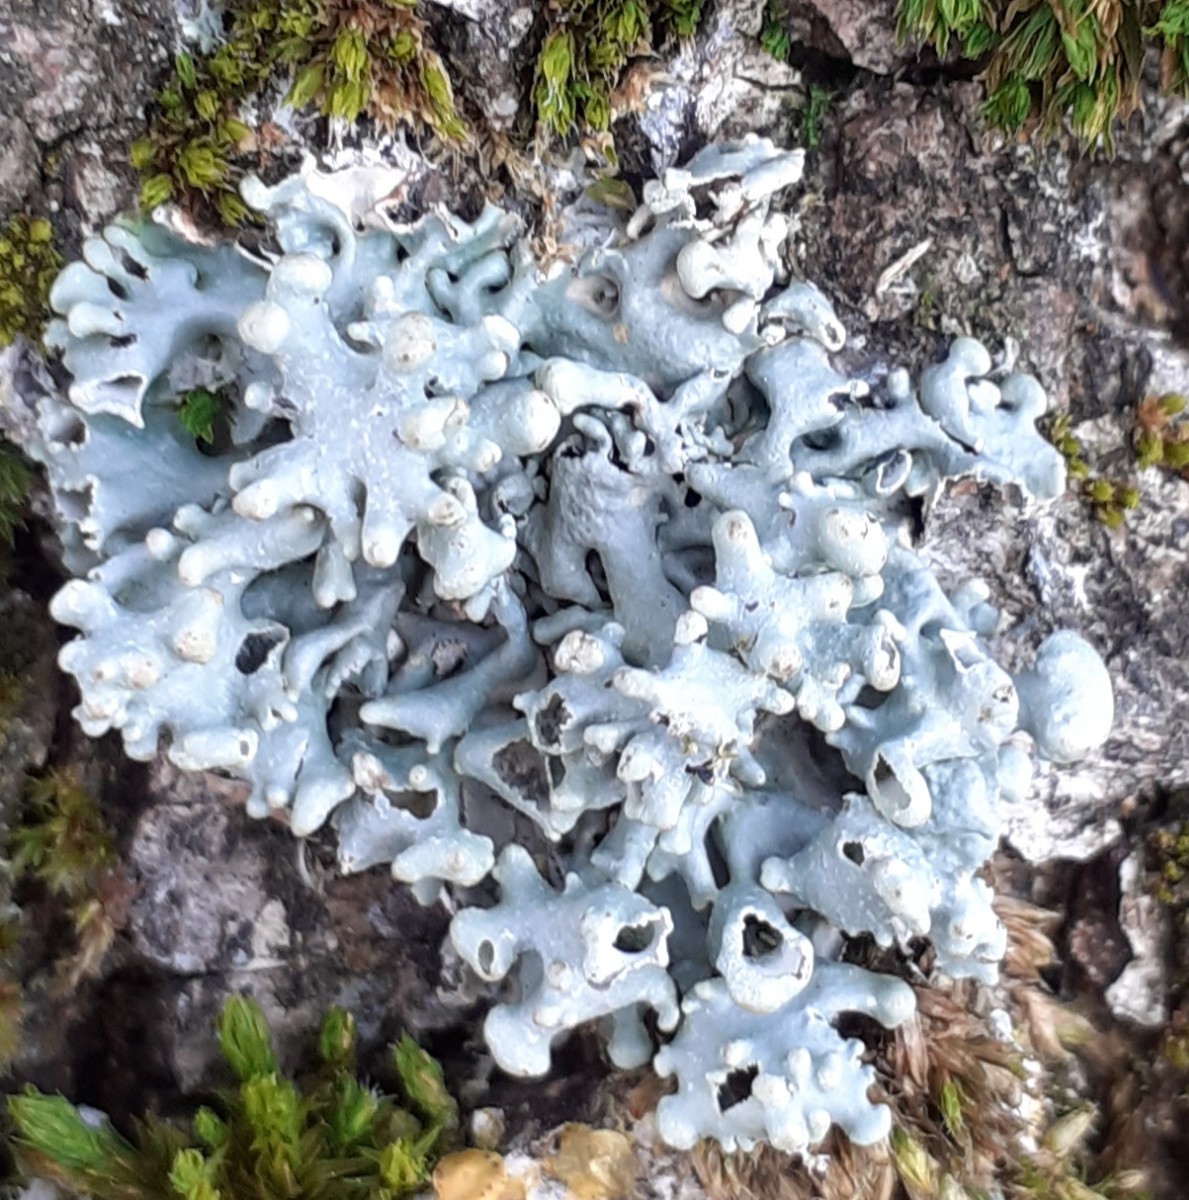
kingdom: Fungi
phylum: Ascomycota
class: Lecanoromycetes
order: Lecanorales
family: Parmeliaceae
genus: Hypogymnia
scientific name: Hypogymnia tubulosa
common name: finger-kvistlav
